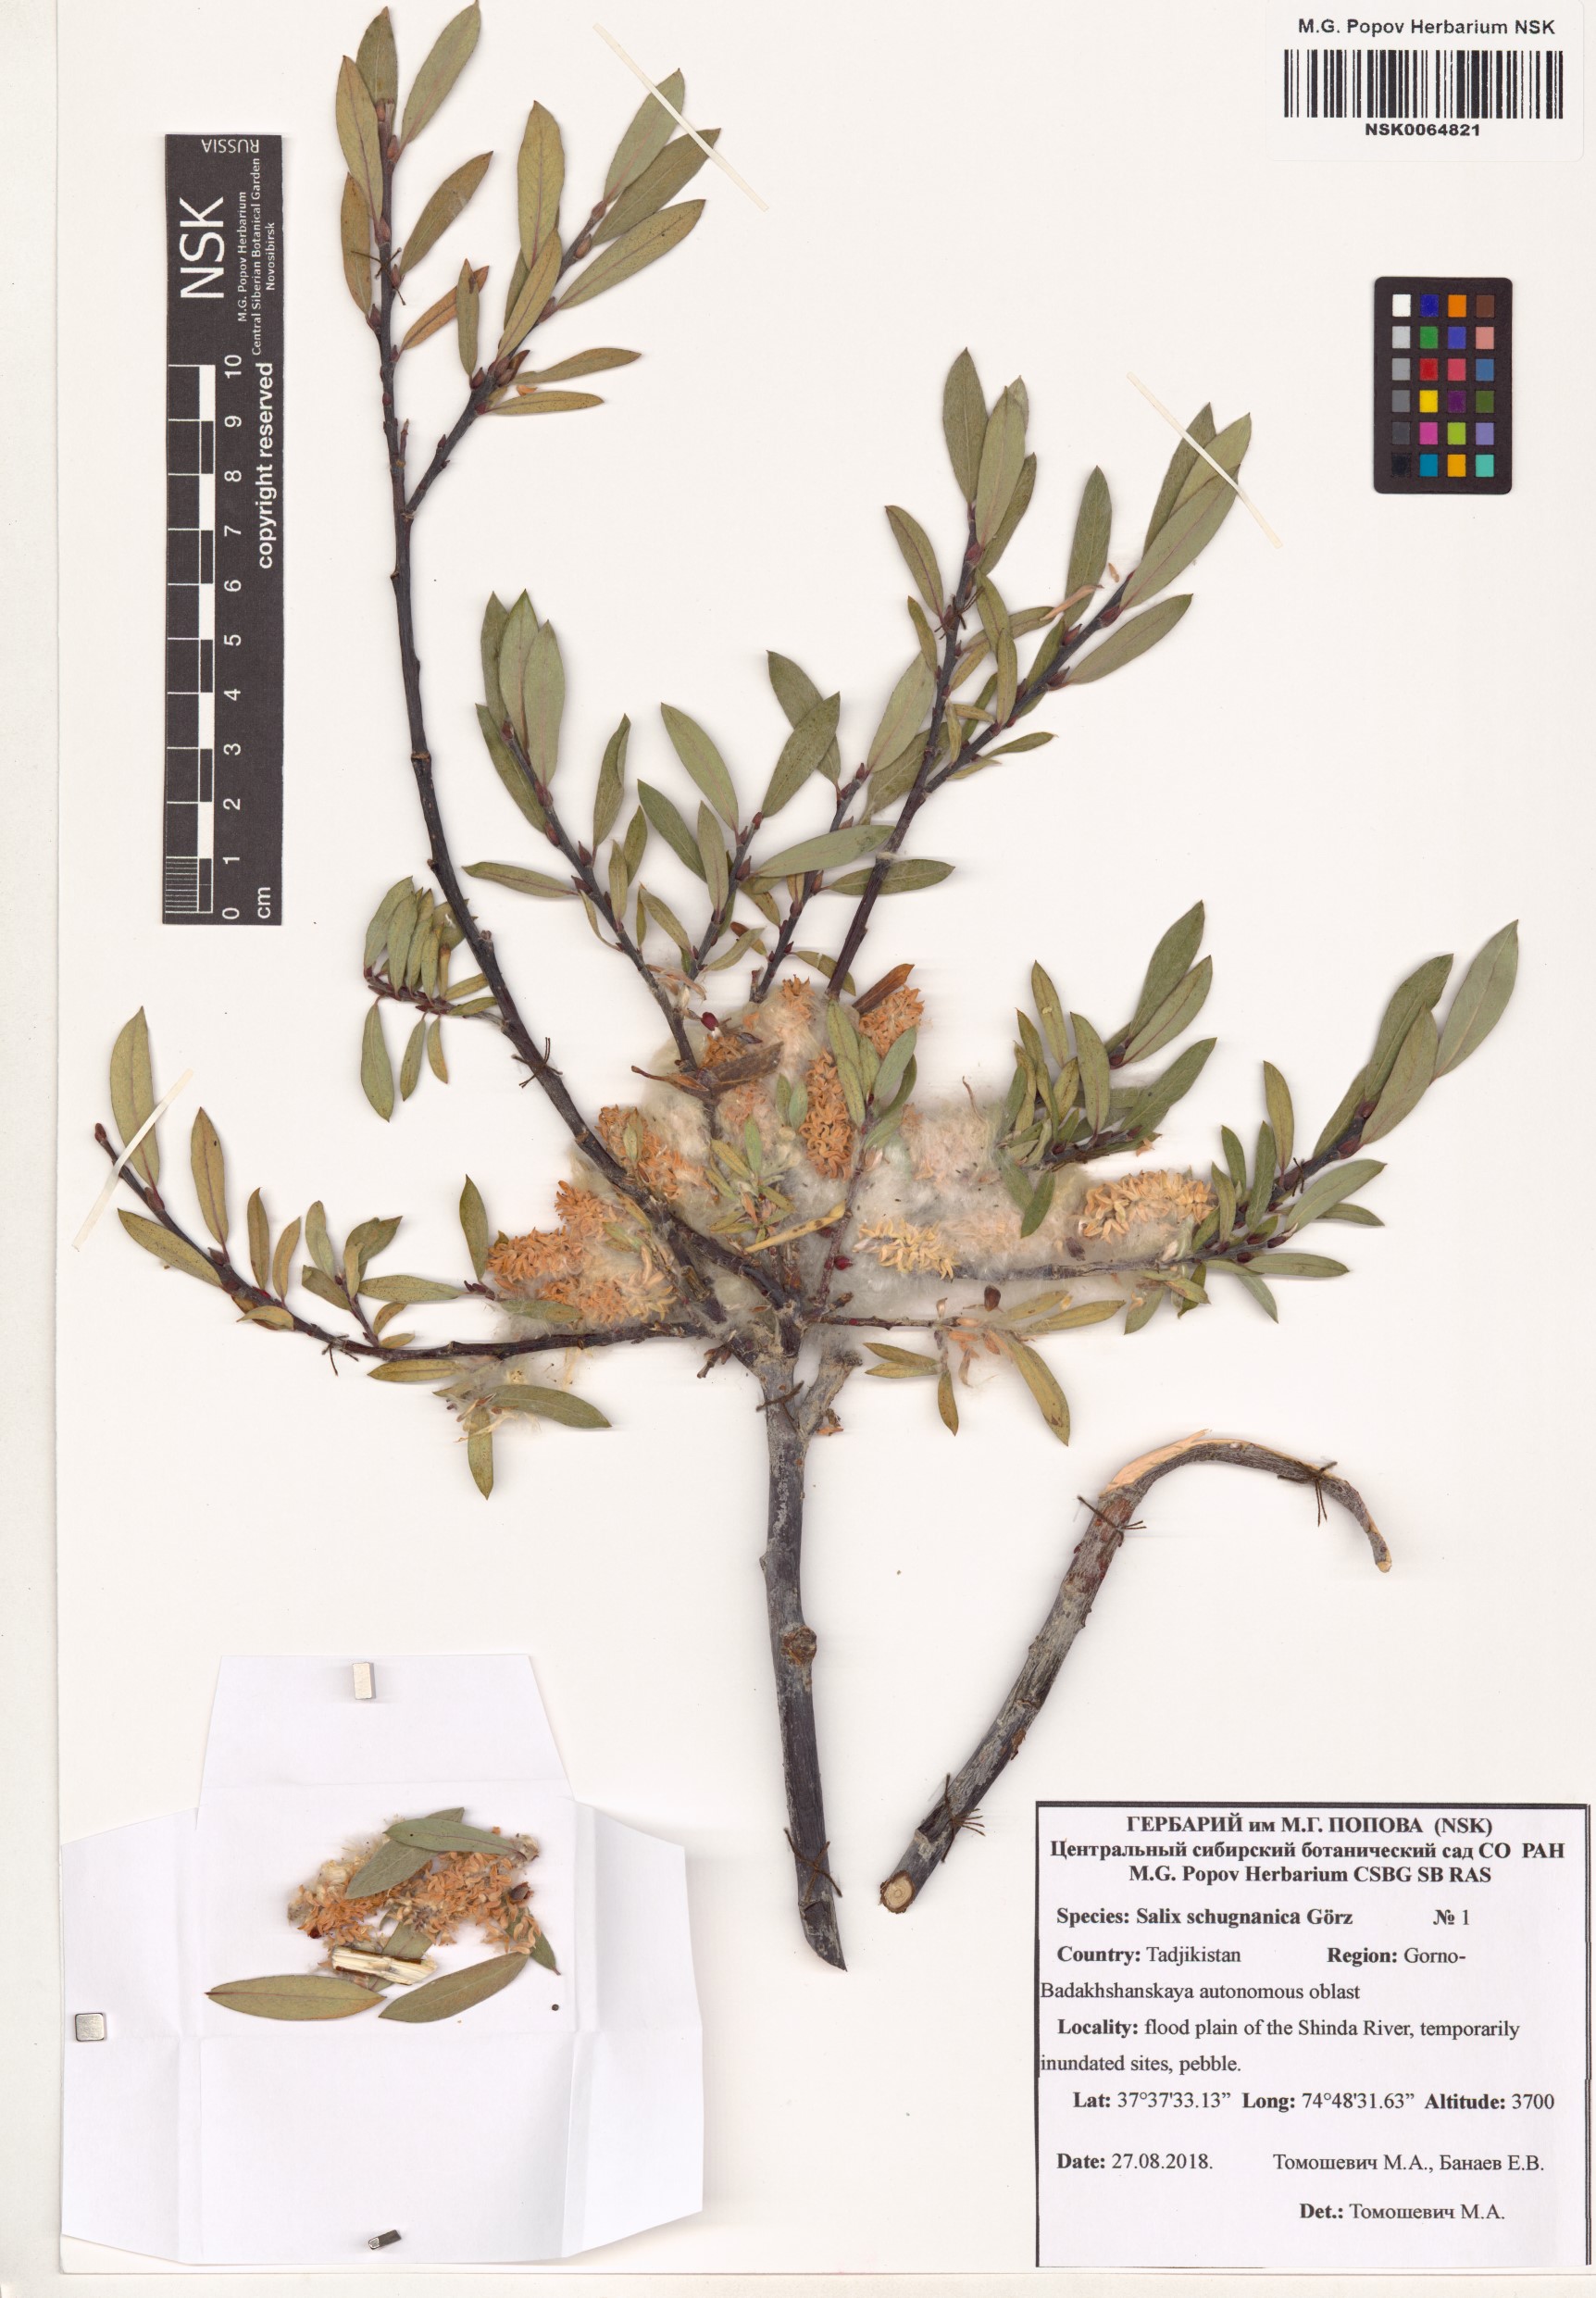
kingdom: Plantae
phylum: Tracheophyta
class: Magnoliopsida
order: Malpighiales
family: Salicaceae
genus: Salix
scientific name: Salix rosmarinifolia
